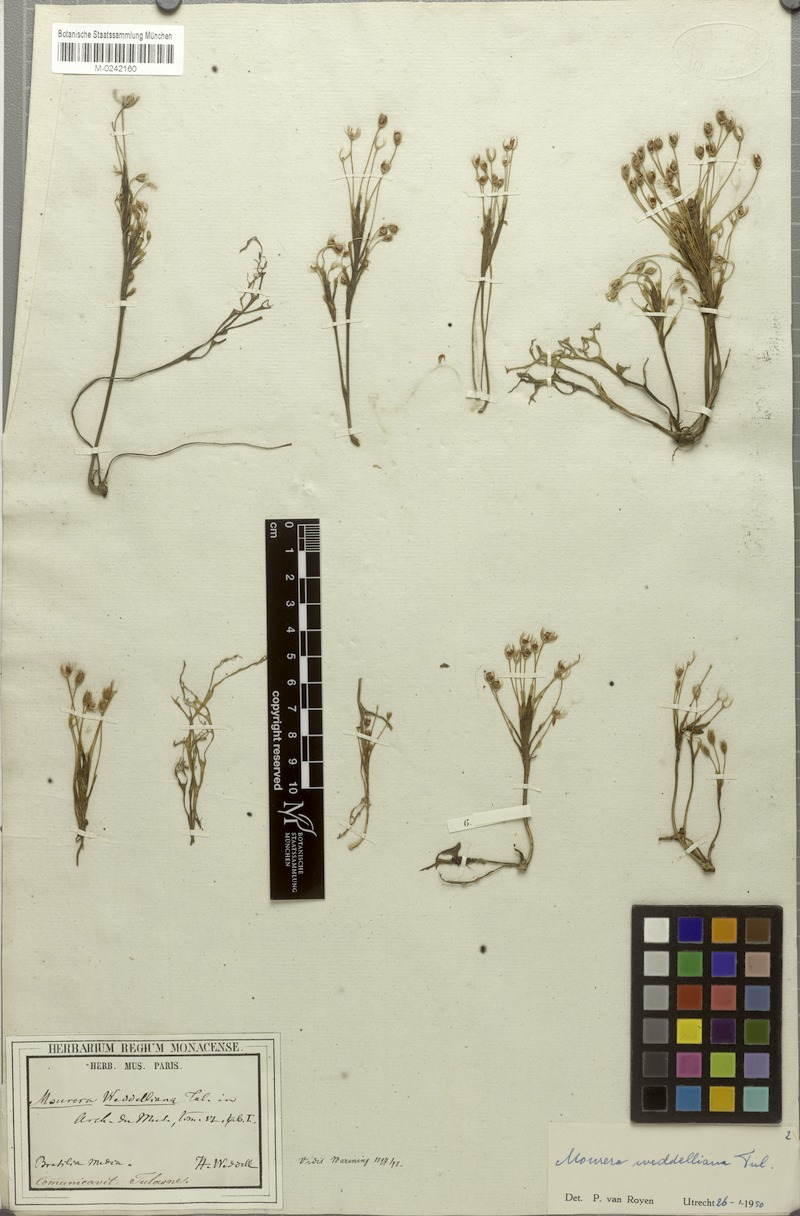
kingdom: Plantae
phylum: Tracheophyta
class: Magnoliopsida
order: Malpighiales
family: Podostemaceae
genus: Mourera
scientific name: Mourera weddelliana
